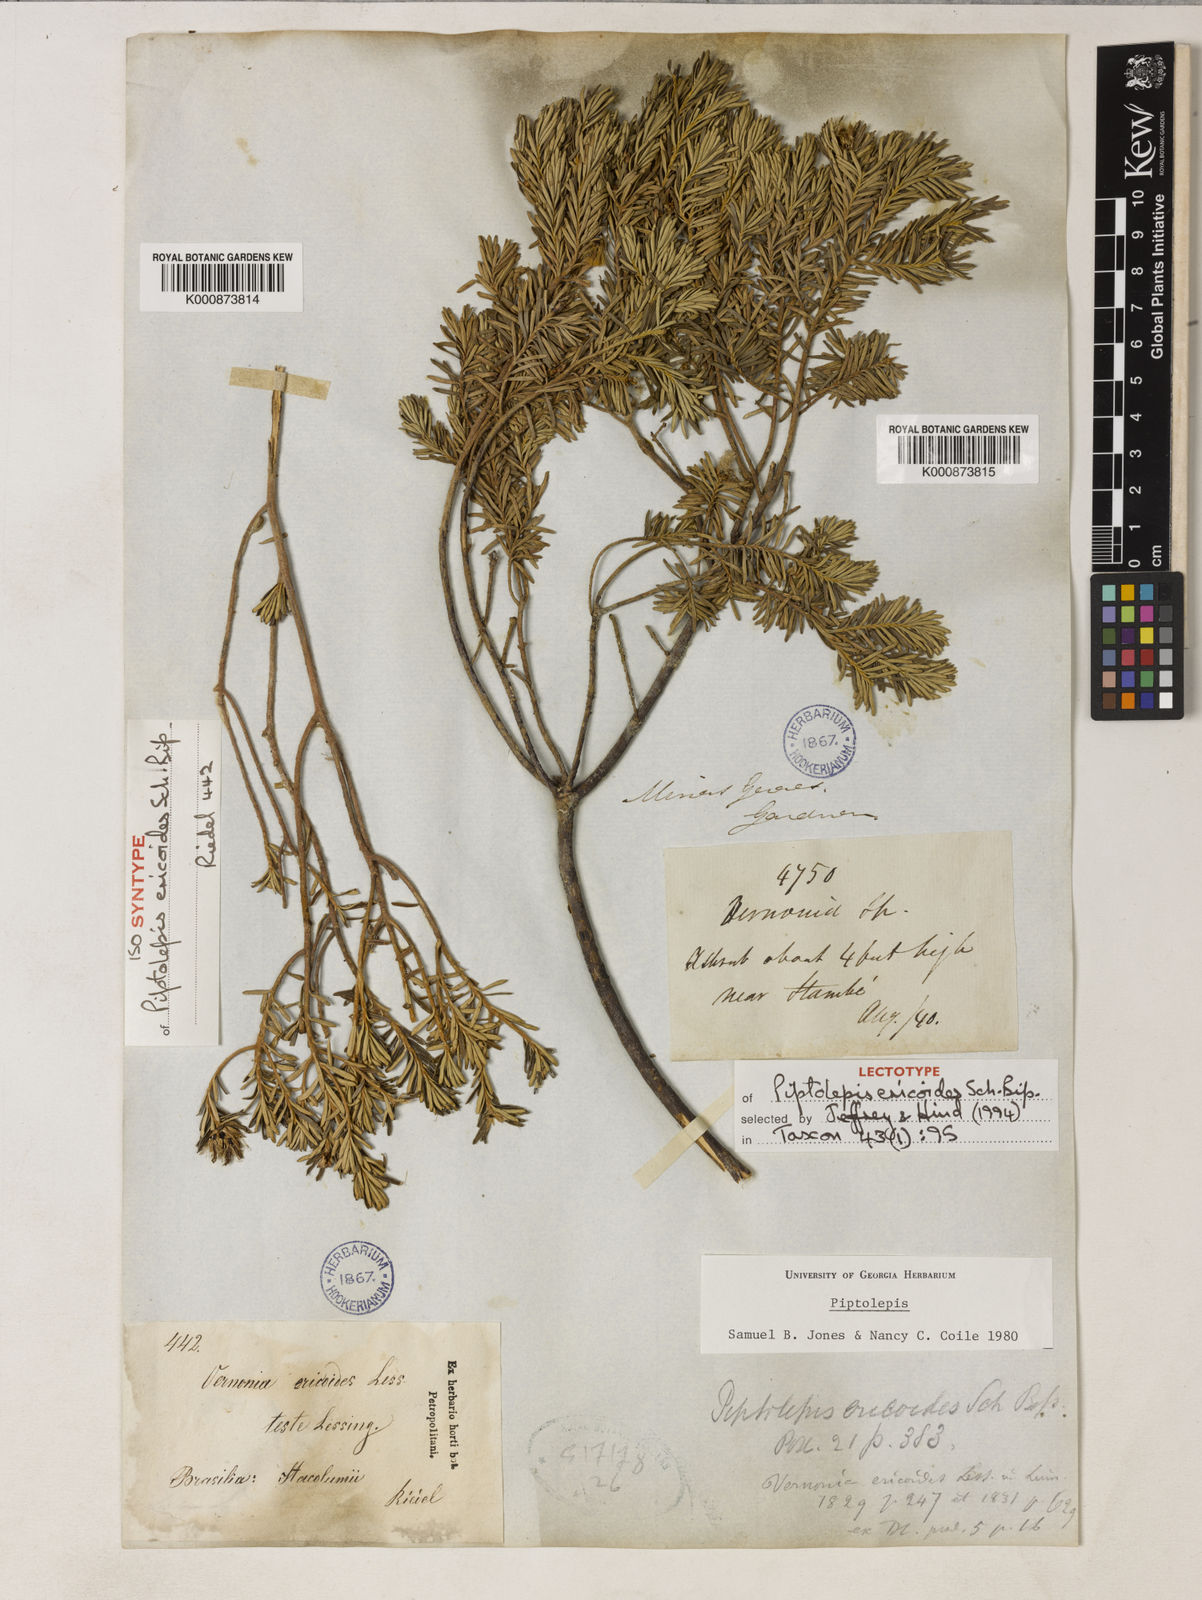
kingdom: Plantae
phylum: Tracheophyta
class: Magnoliopsida
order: Asterales
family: Asteraceae
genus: Piptolepis
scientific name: Piptolepis ericoides
